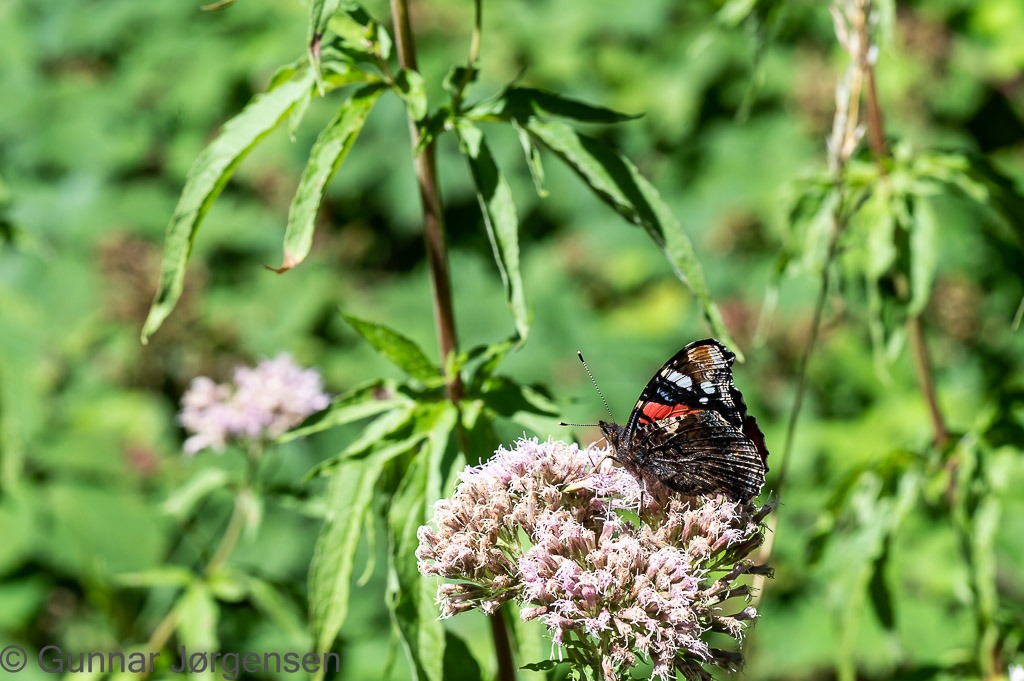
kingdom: Animalia
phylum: Arthropoda
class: Insecta
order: Lepidoptera
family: Nymphalidae
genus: Vanessa
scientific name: Vanessa atalanta
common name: Admiral
